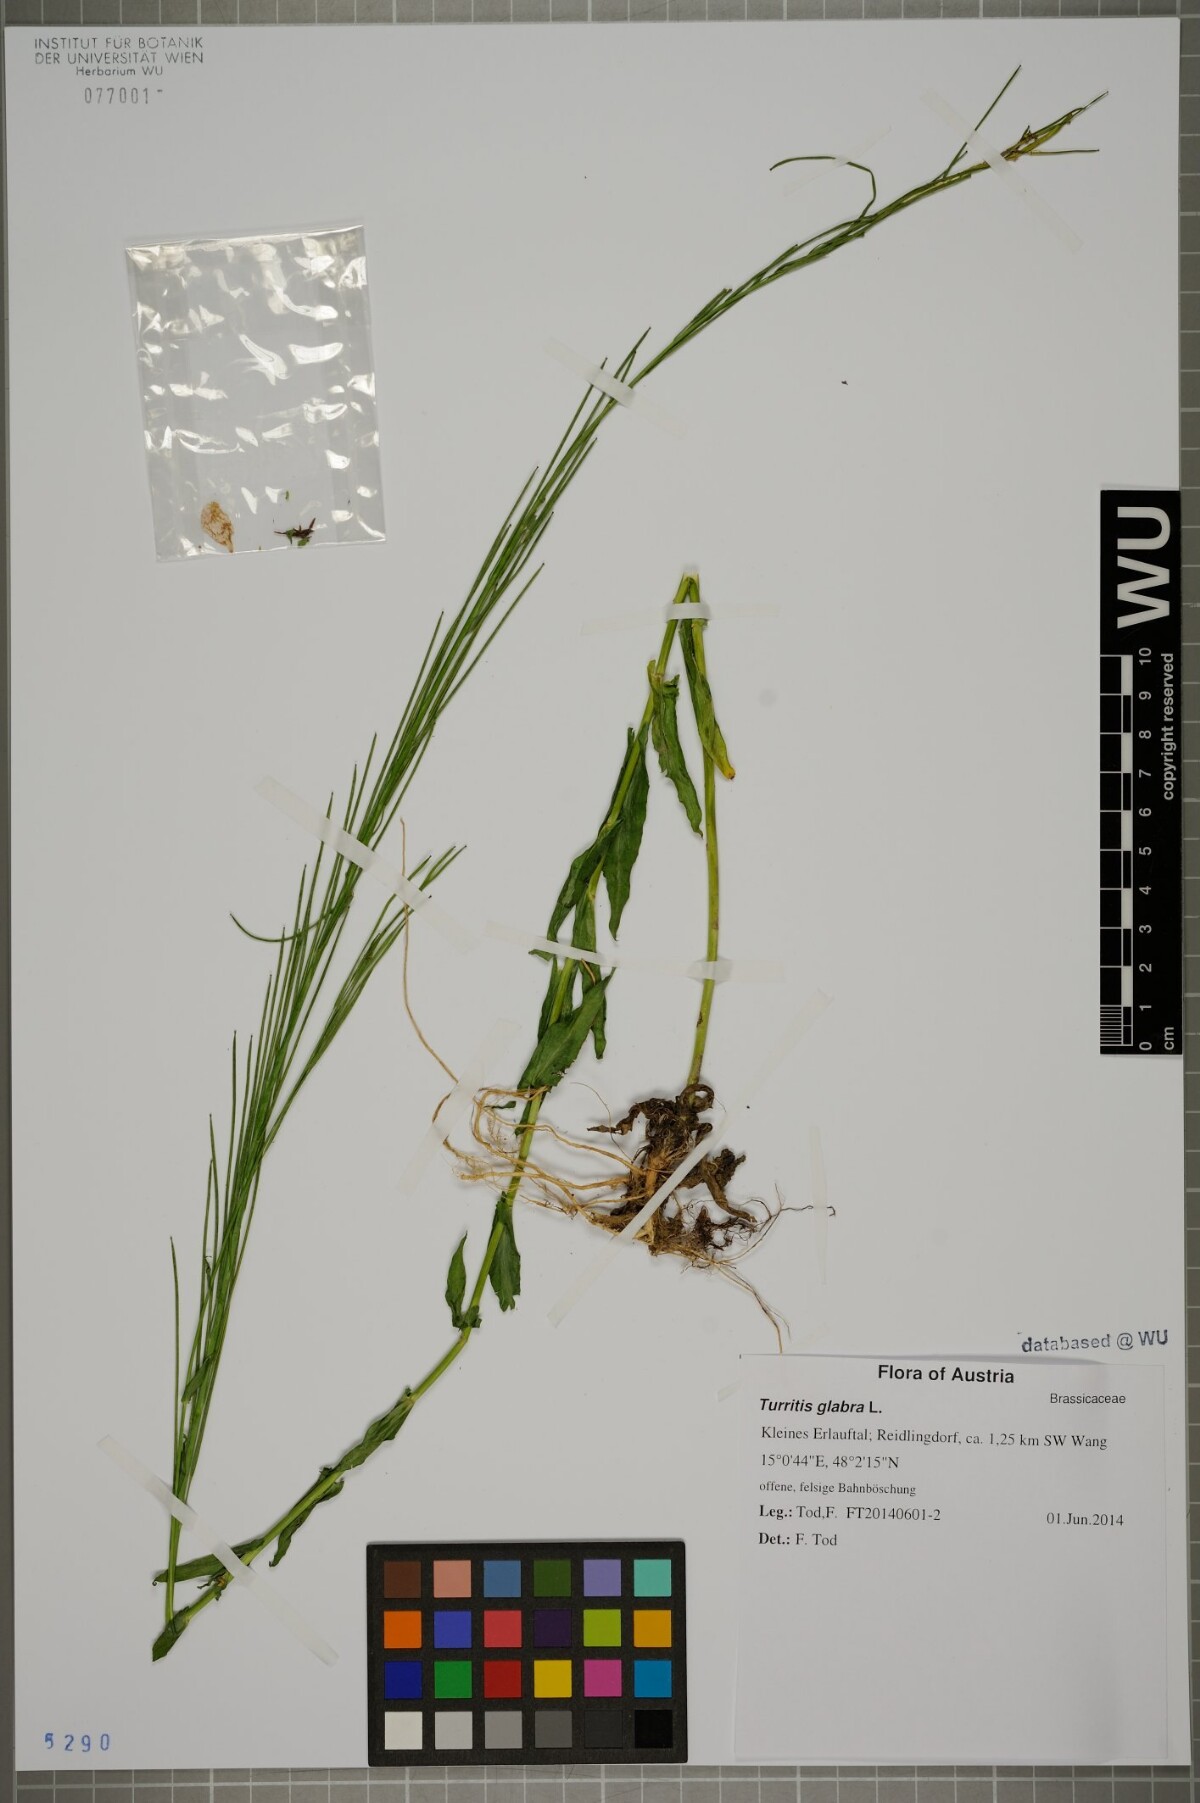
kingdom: Plantae
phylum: Tracheophyta
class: Magnoliopsida
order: Brassicales
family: Brassicaceae
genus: Turritis
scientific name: Turritis glabra
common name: Tower rockcress
